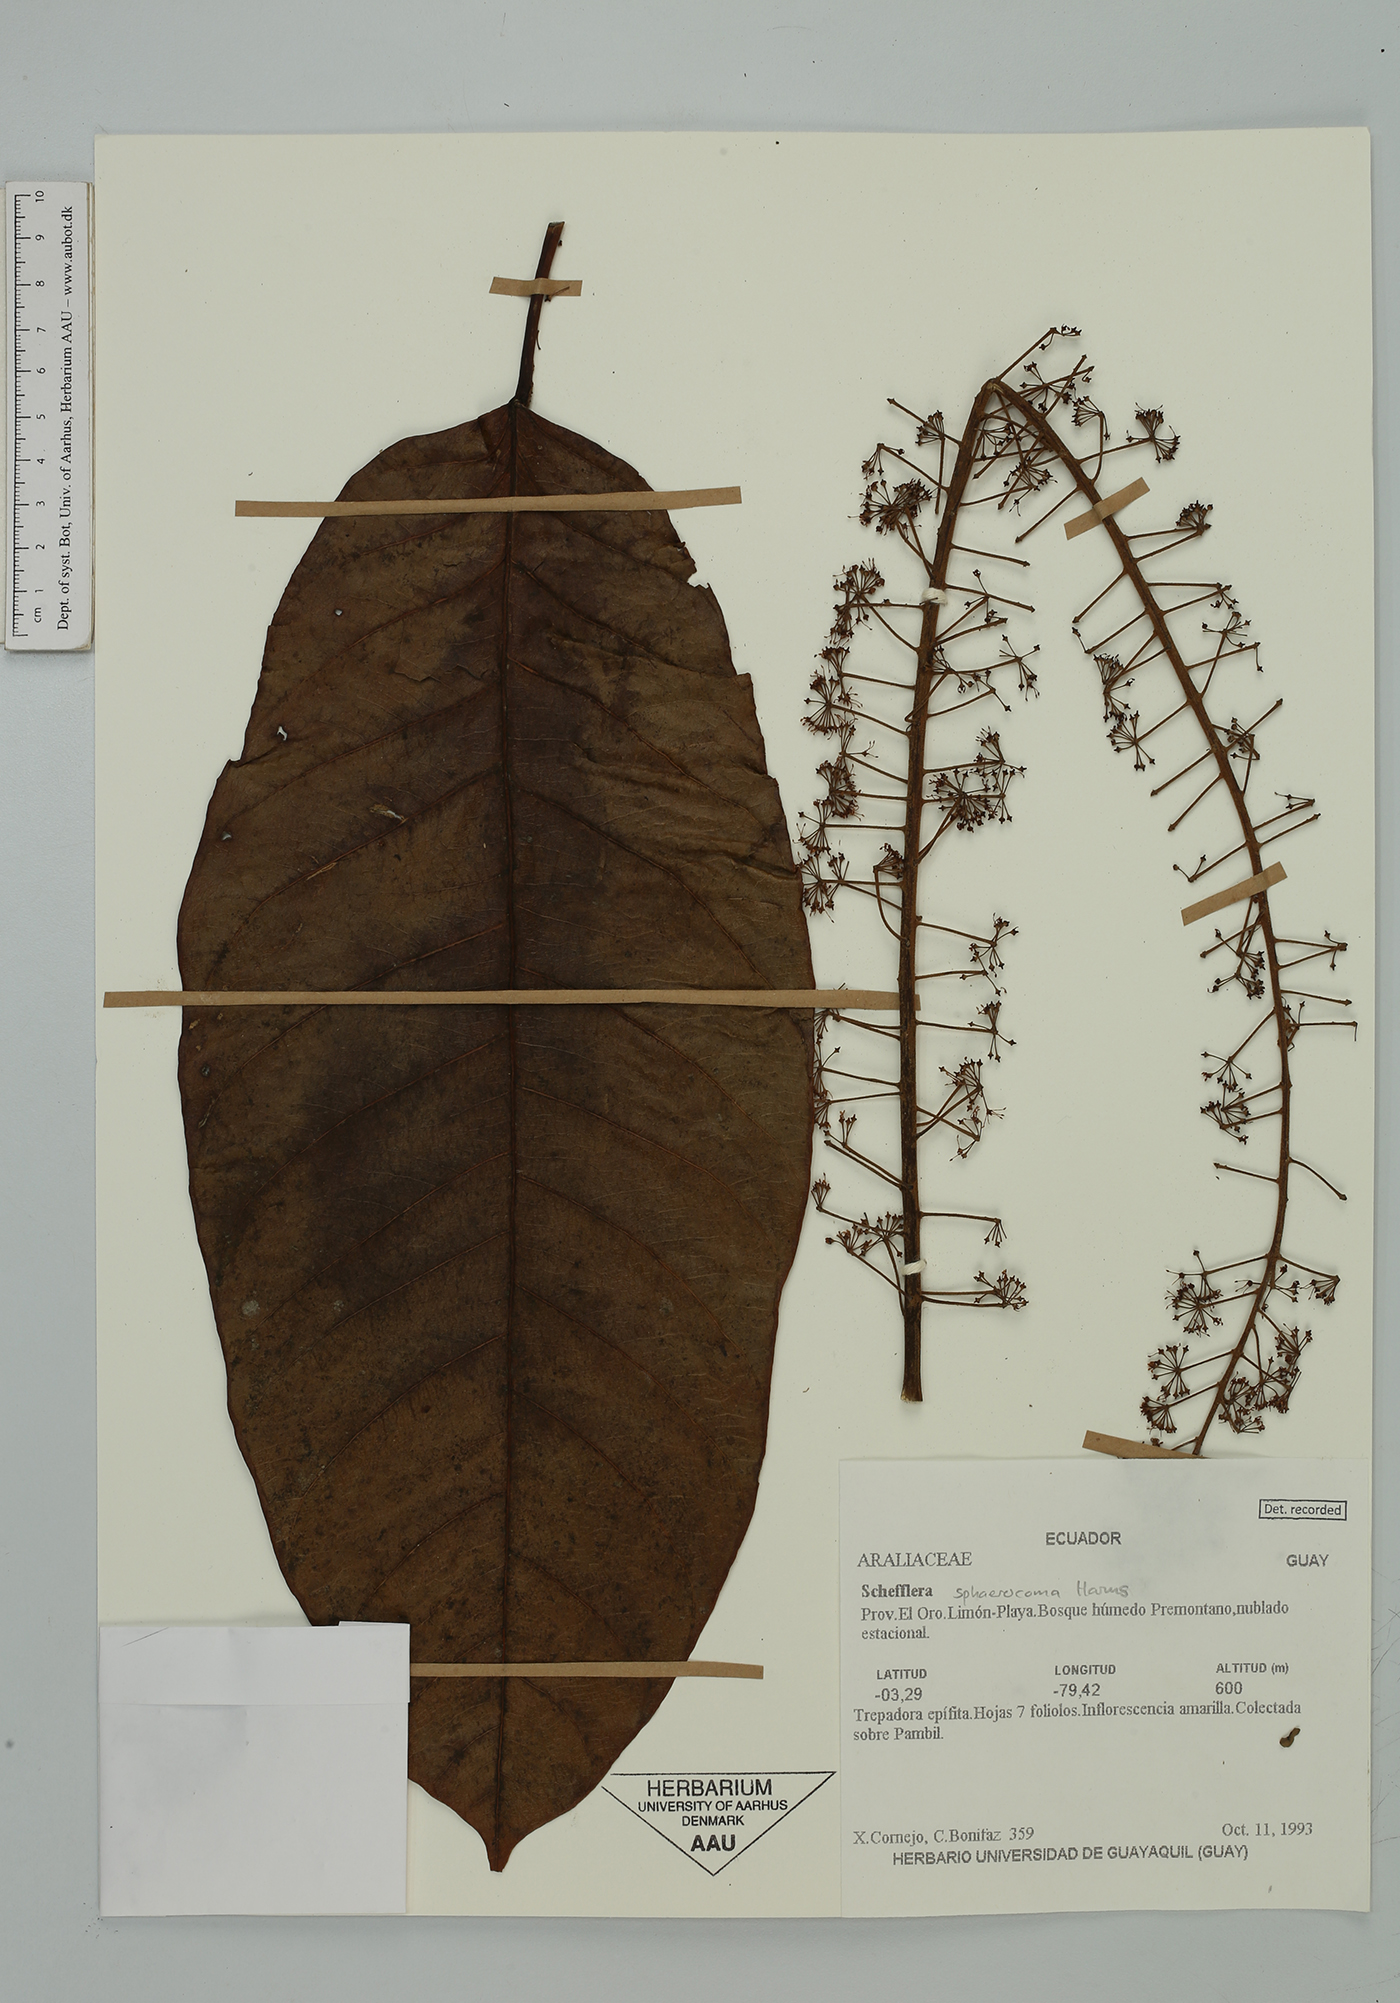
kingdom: Plantae
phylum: Tracheophyta
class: Magnoliopsida
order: Apiales
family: Araliaceae
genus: Sciodaphyllum
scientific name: Sciodaphyllum sphaerocoma
